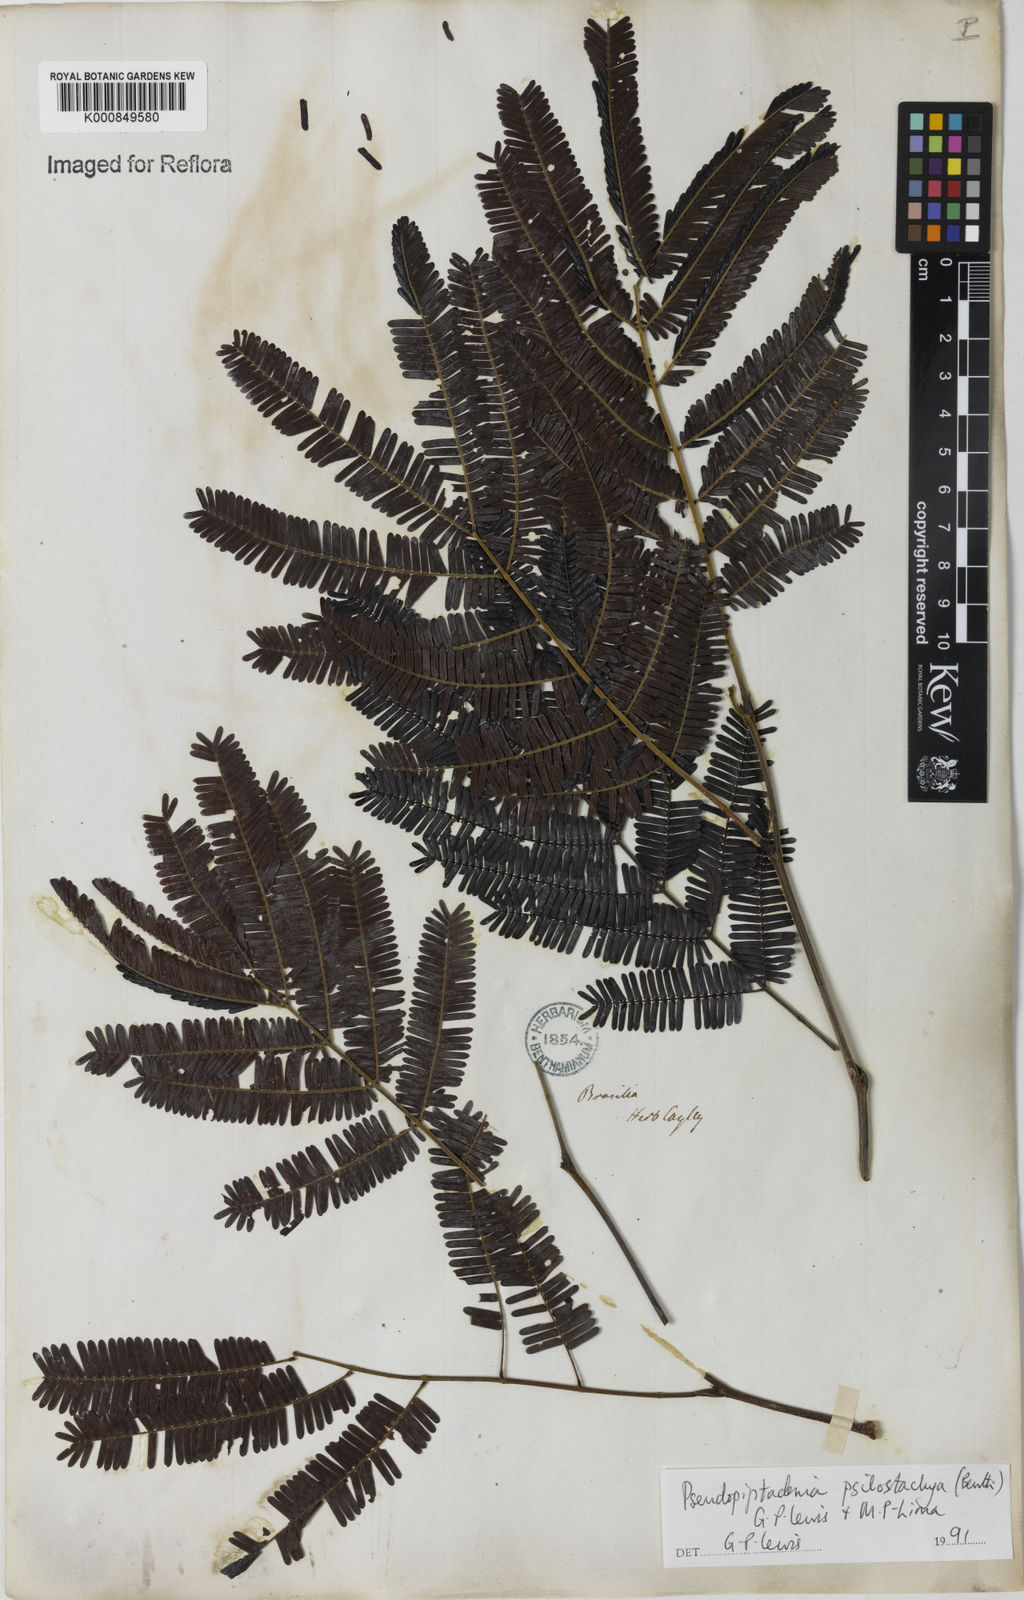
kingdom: Plantae
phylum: Tracheophyta
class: Magnoliopsida
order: Fabales
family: Fabaceae
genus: Pseudopiptadenia
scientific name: Pseudopiptadenia psilostachya
